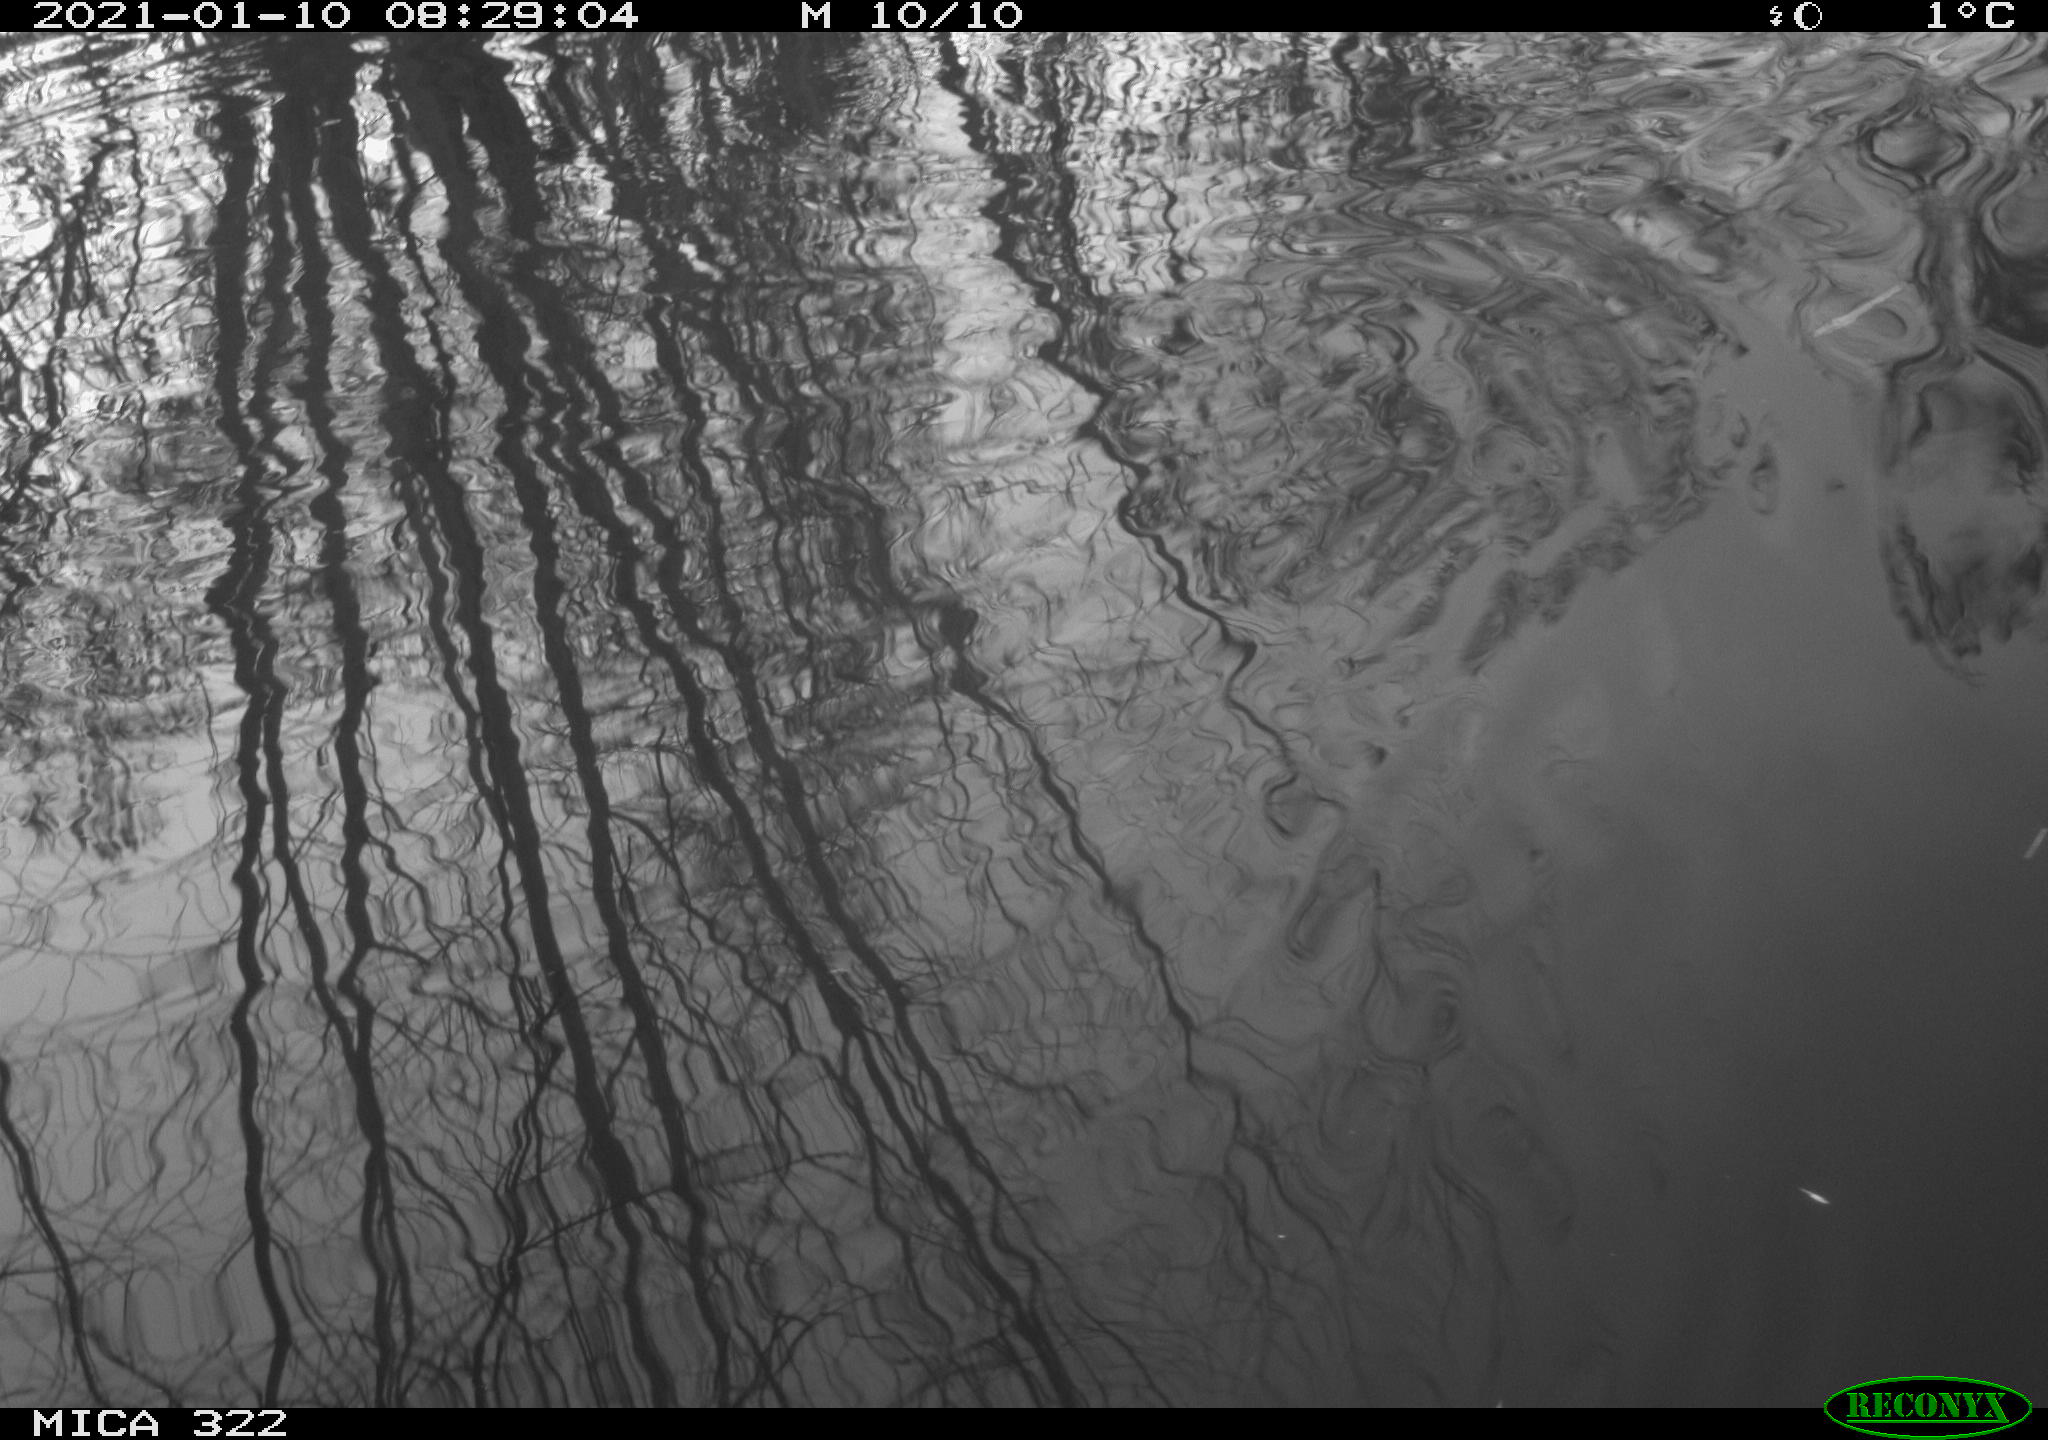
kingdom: Animalia
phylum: Chordata
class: Aves
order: Anseriformes
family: Anatidae
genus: Mareca
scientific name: Mareca strepera
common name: Gadwall
